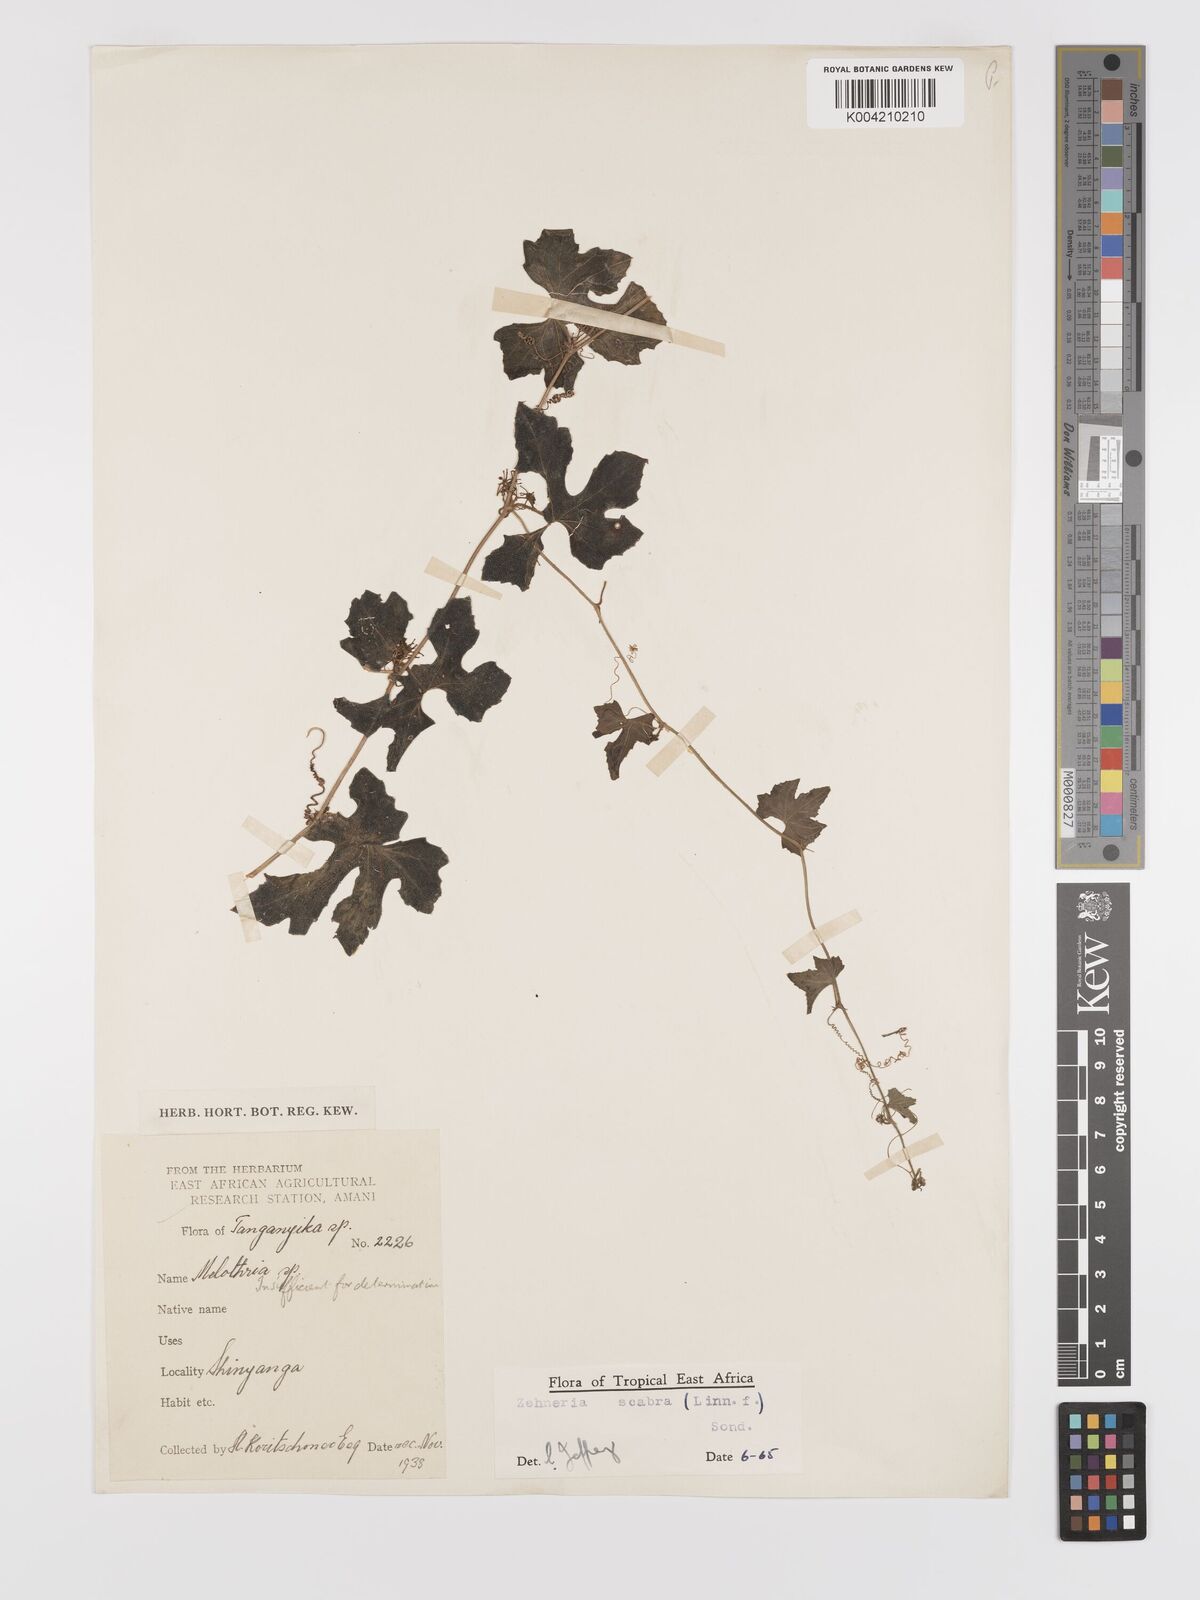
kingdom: Plantae
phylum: Tracheophyta
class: Magnoliopsida
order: Cucurbitales
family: Cucurbitaceae
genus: Zehneria
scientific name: Zehneria scabra
